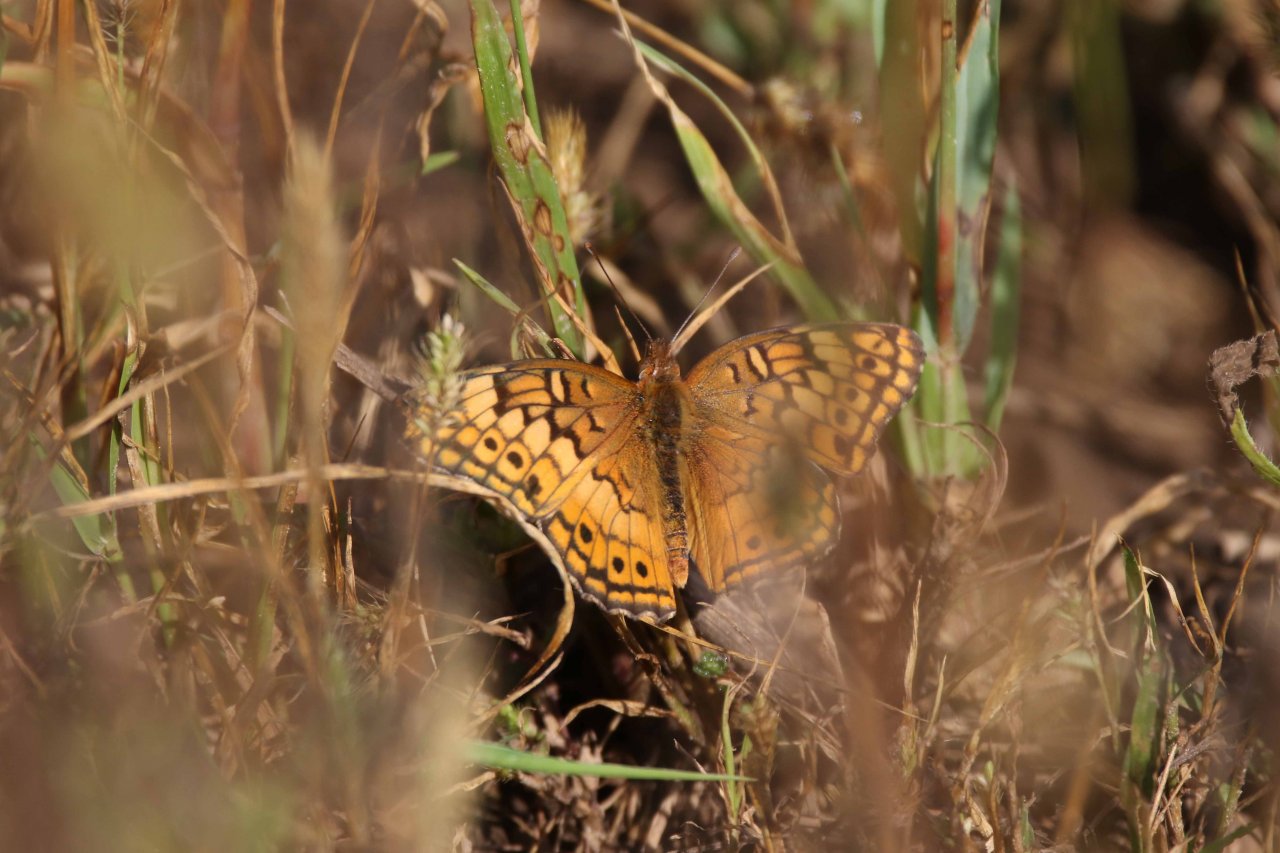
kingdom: Animalia
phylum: Arthropoda
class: Insecta
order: Lepidoptera
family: Nymphalidae
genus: Euptoieta
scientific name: Euptoieta claudia
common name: Variegated Fritillary
